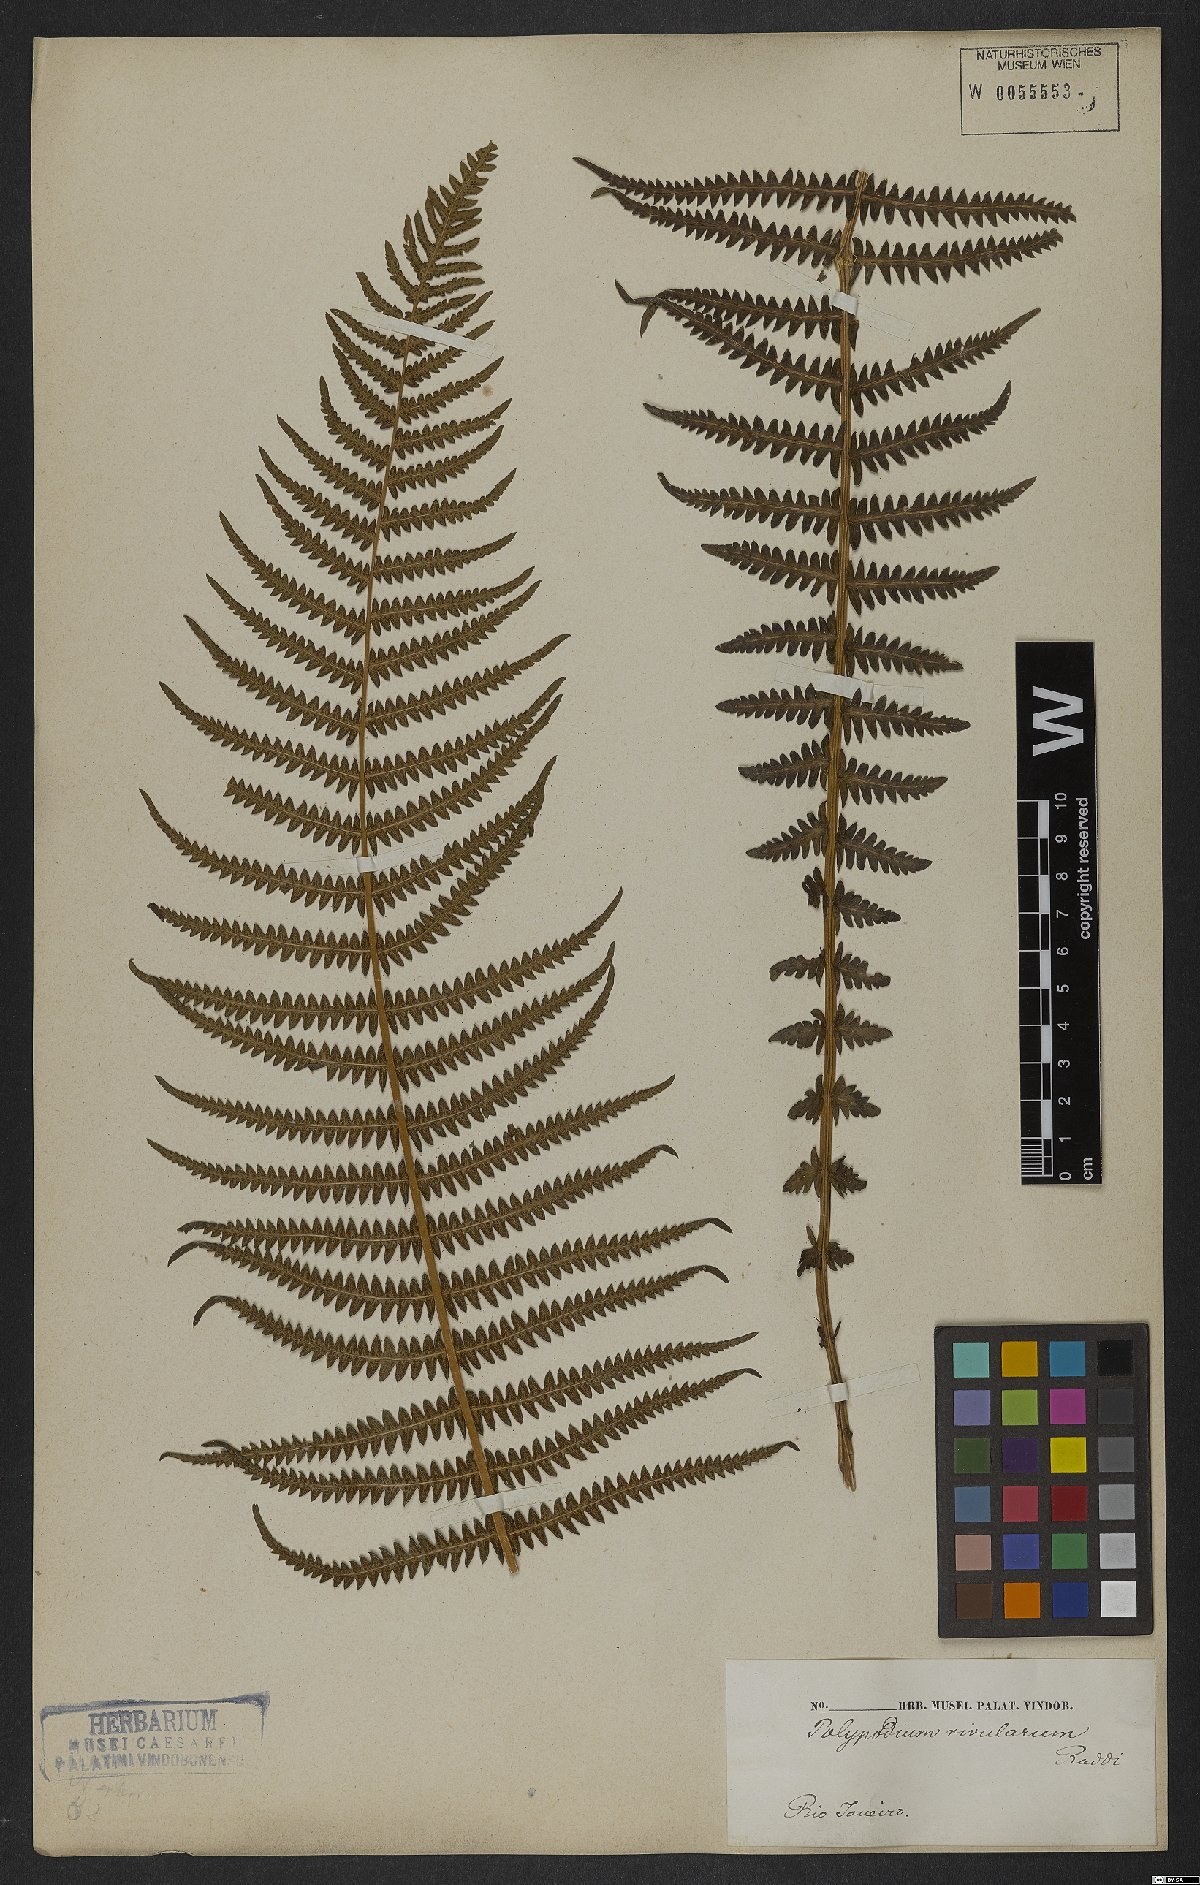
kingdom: Plantae
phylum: Tracheophyta
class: Polypodiopsida
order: Polypodiales
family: Thelypteridaceae
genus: Amauropelta
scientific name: Amauropelta opposita
